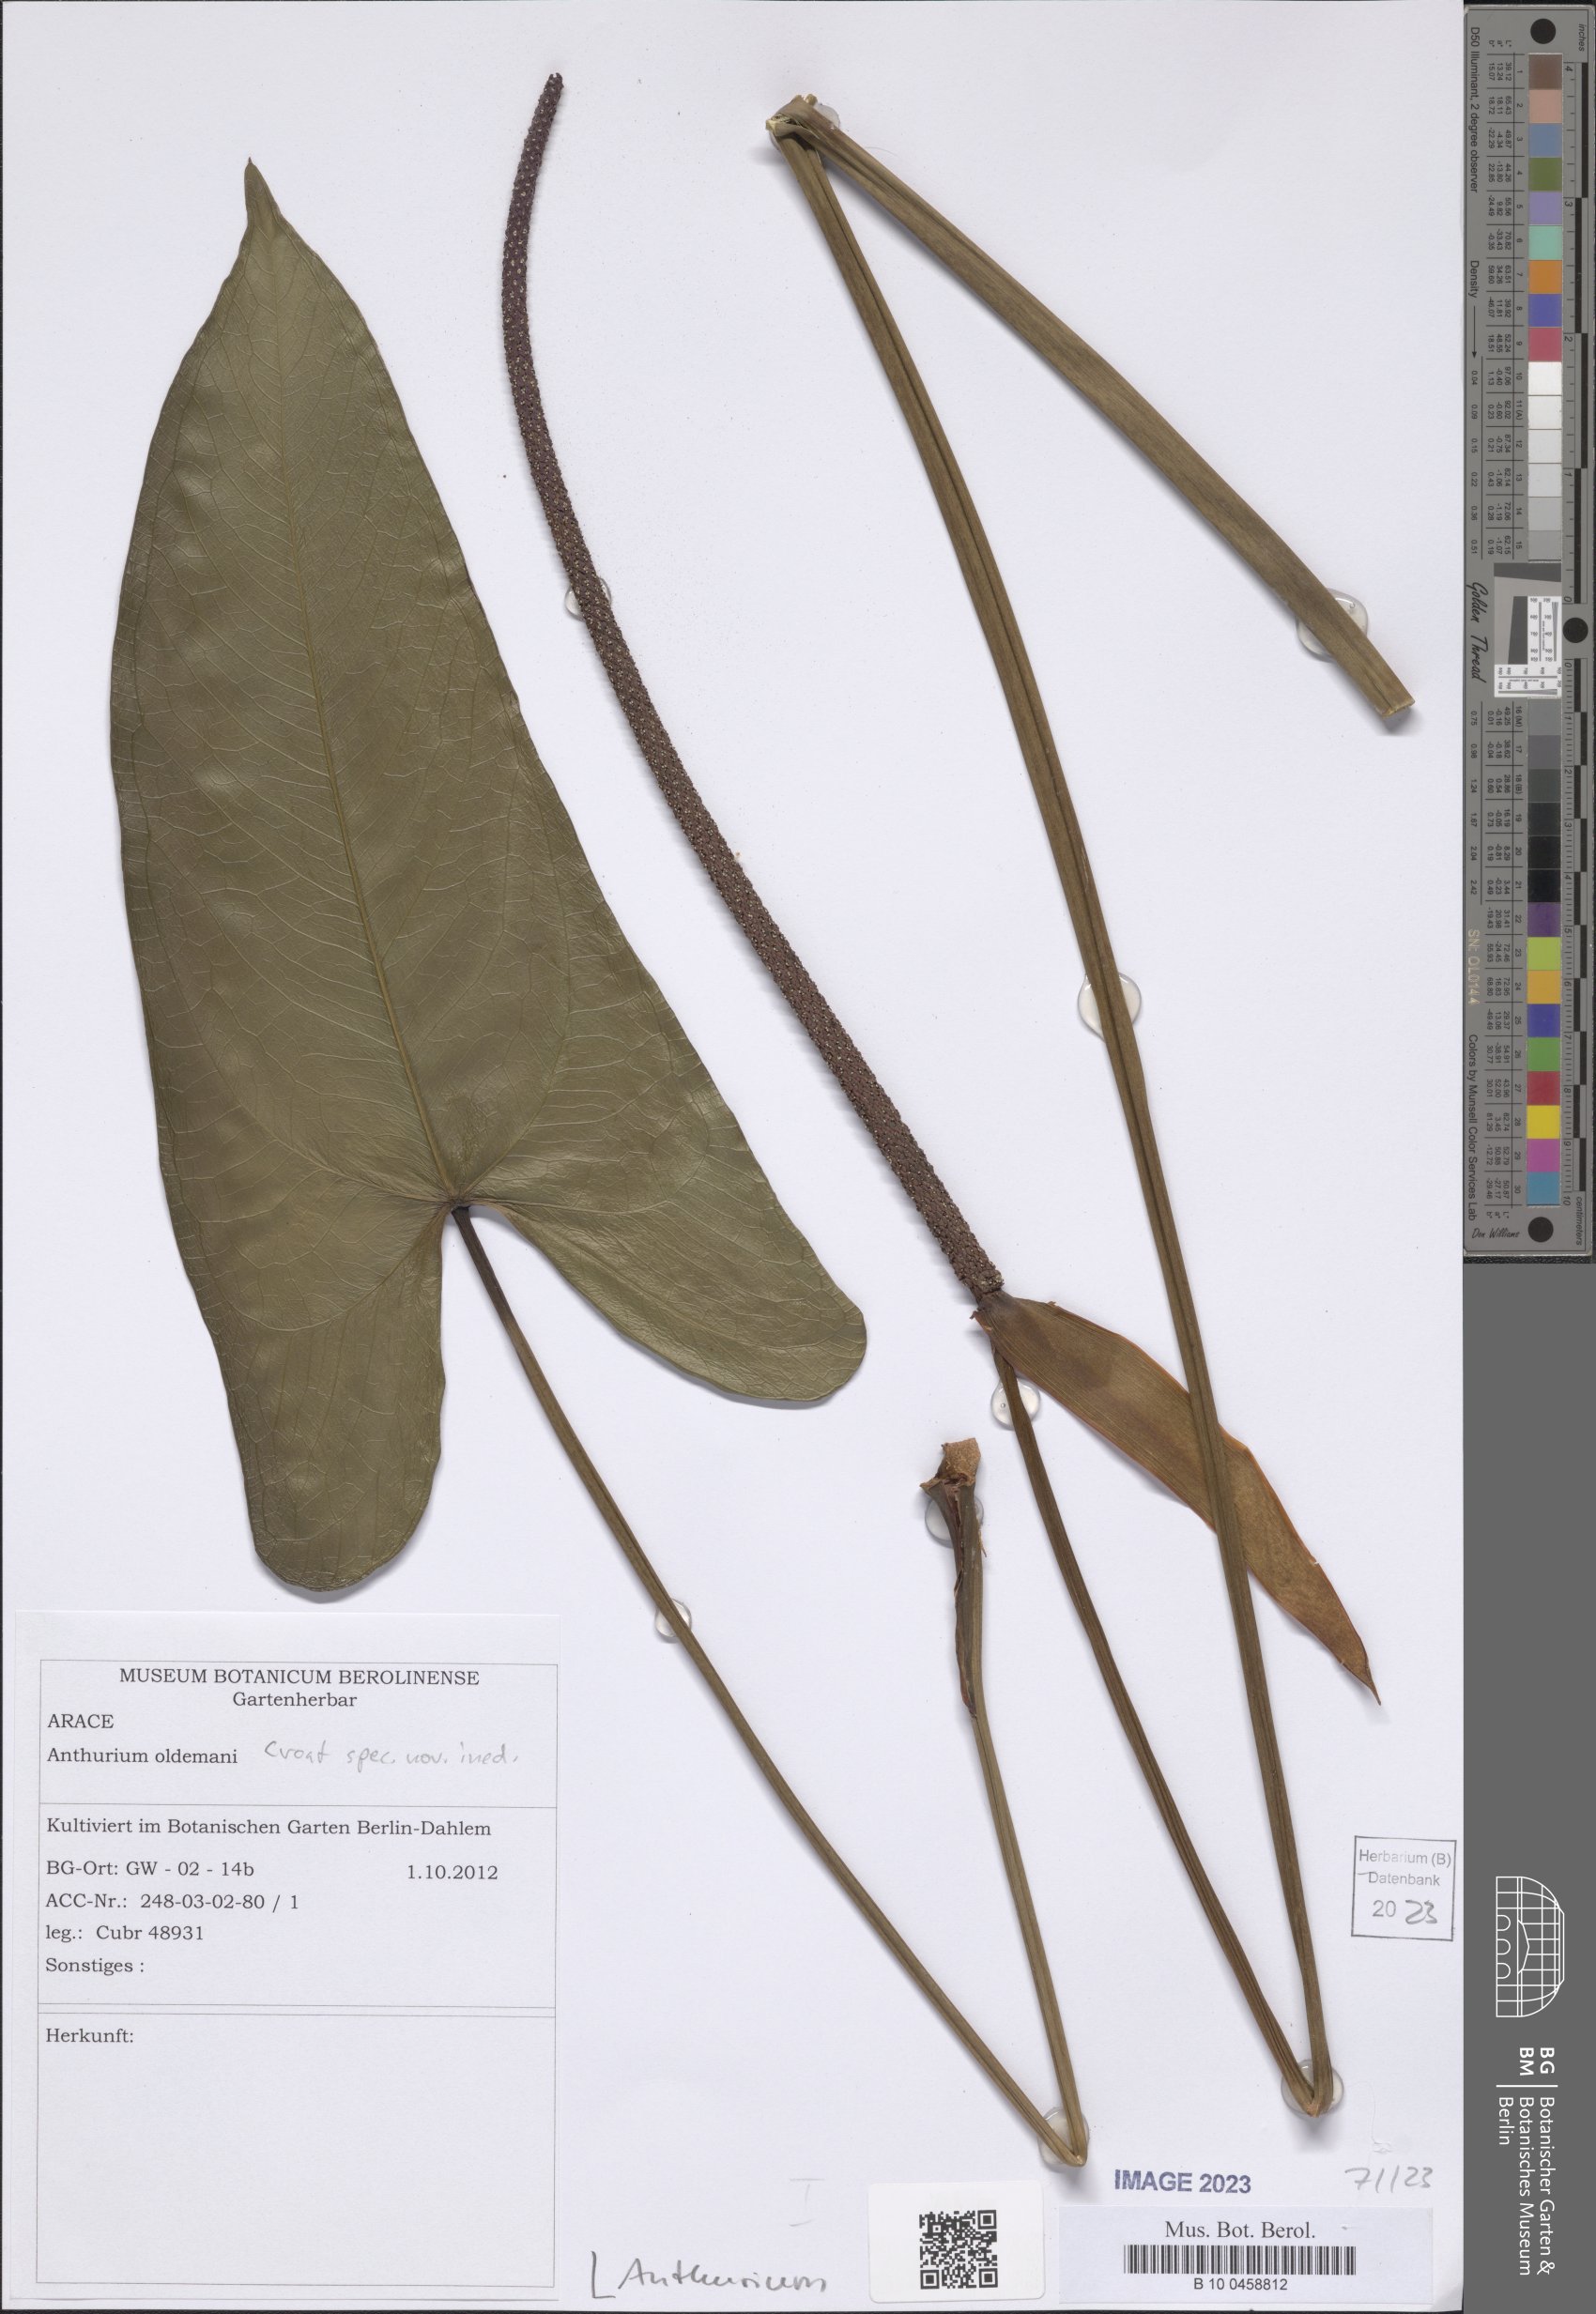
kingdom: Plantae
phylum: Tracheophyta
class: Liliopsida
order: Alismatales
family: Araceae
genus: Anthurium
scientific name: Anthurium
